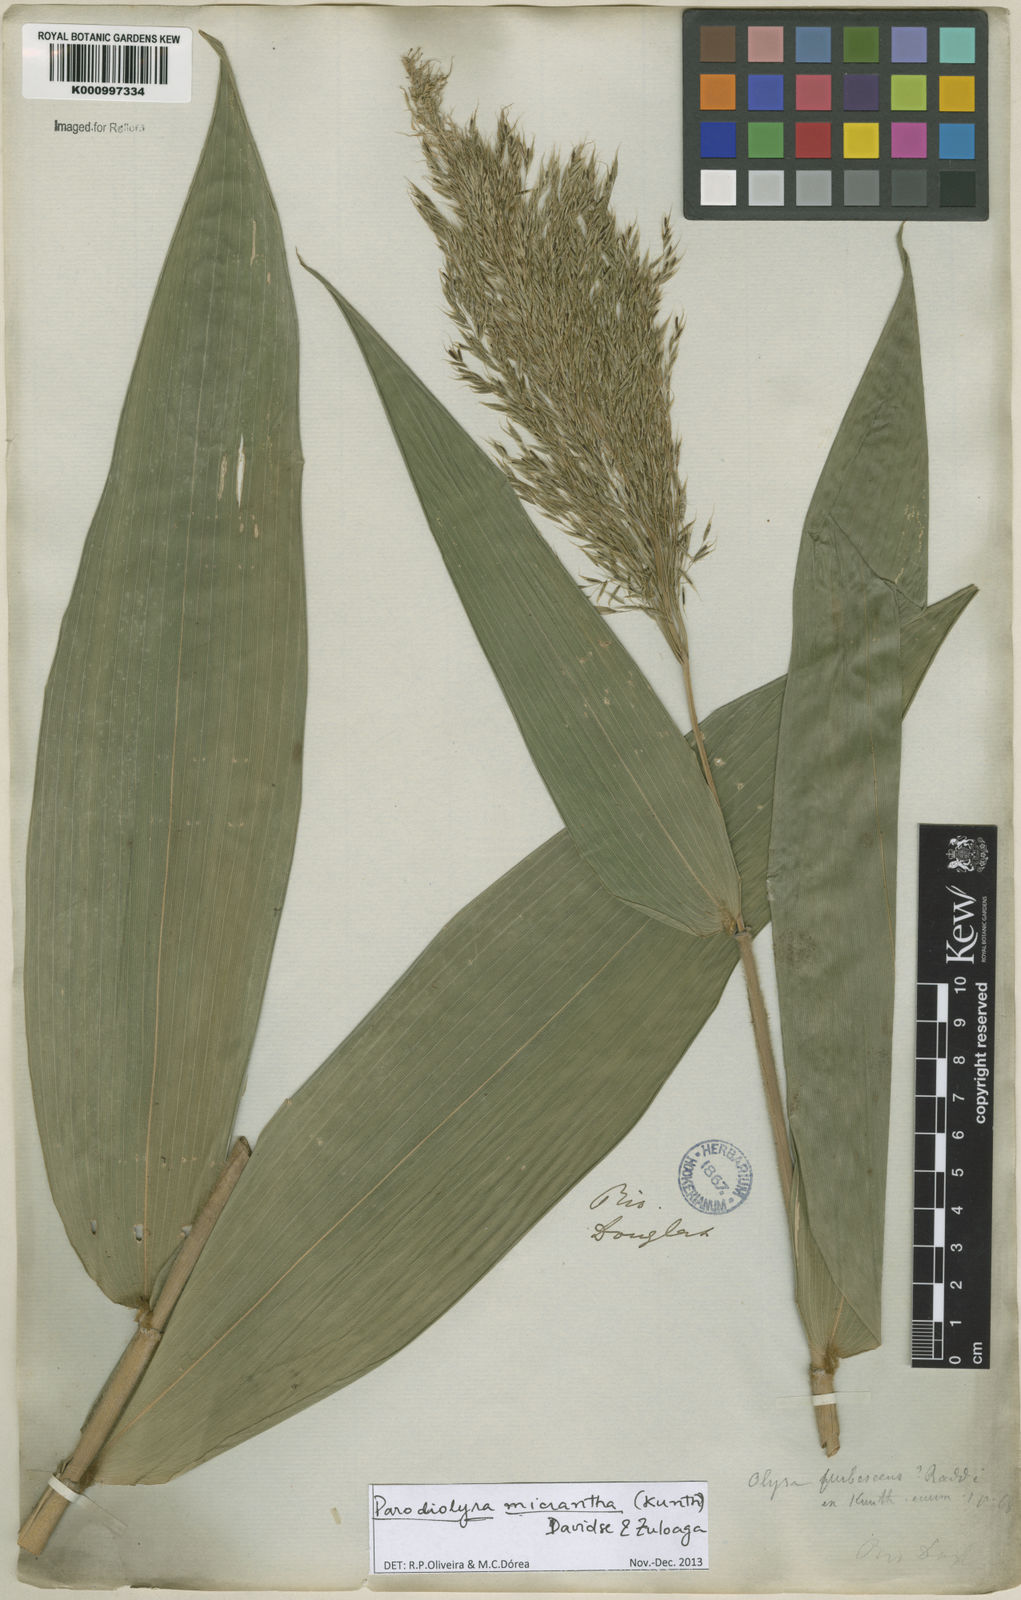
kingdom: Plantae
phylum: Tracheophyta
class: Liliopsida
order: Poales
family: Poaceae
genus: Taquara
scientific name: Taquara micrantha
